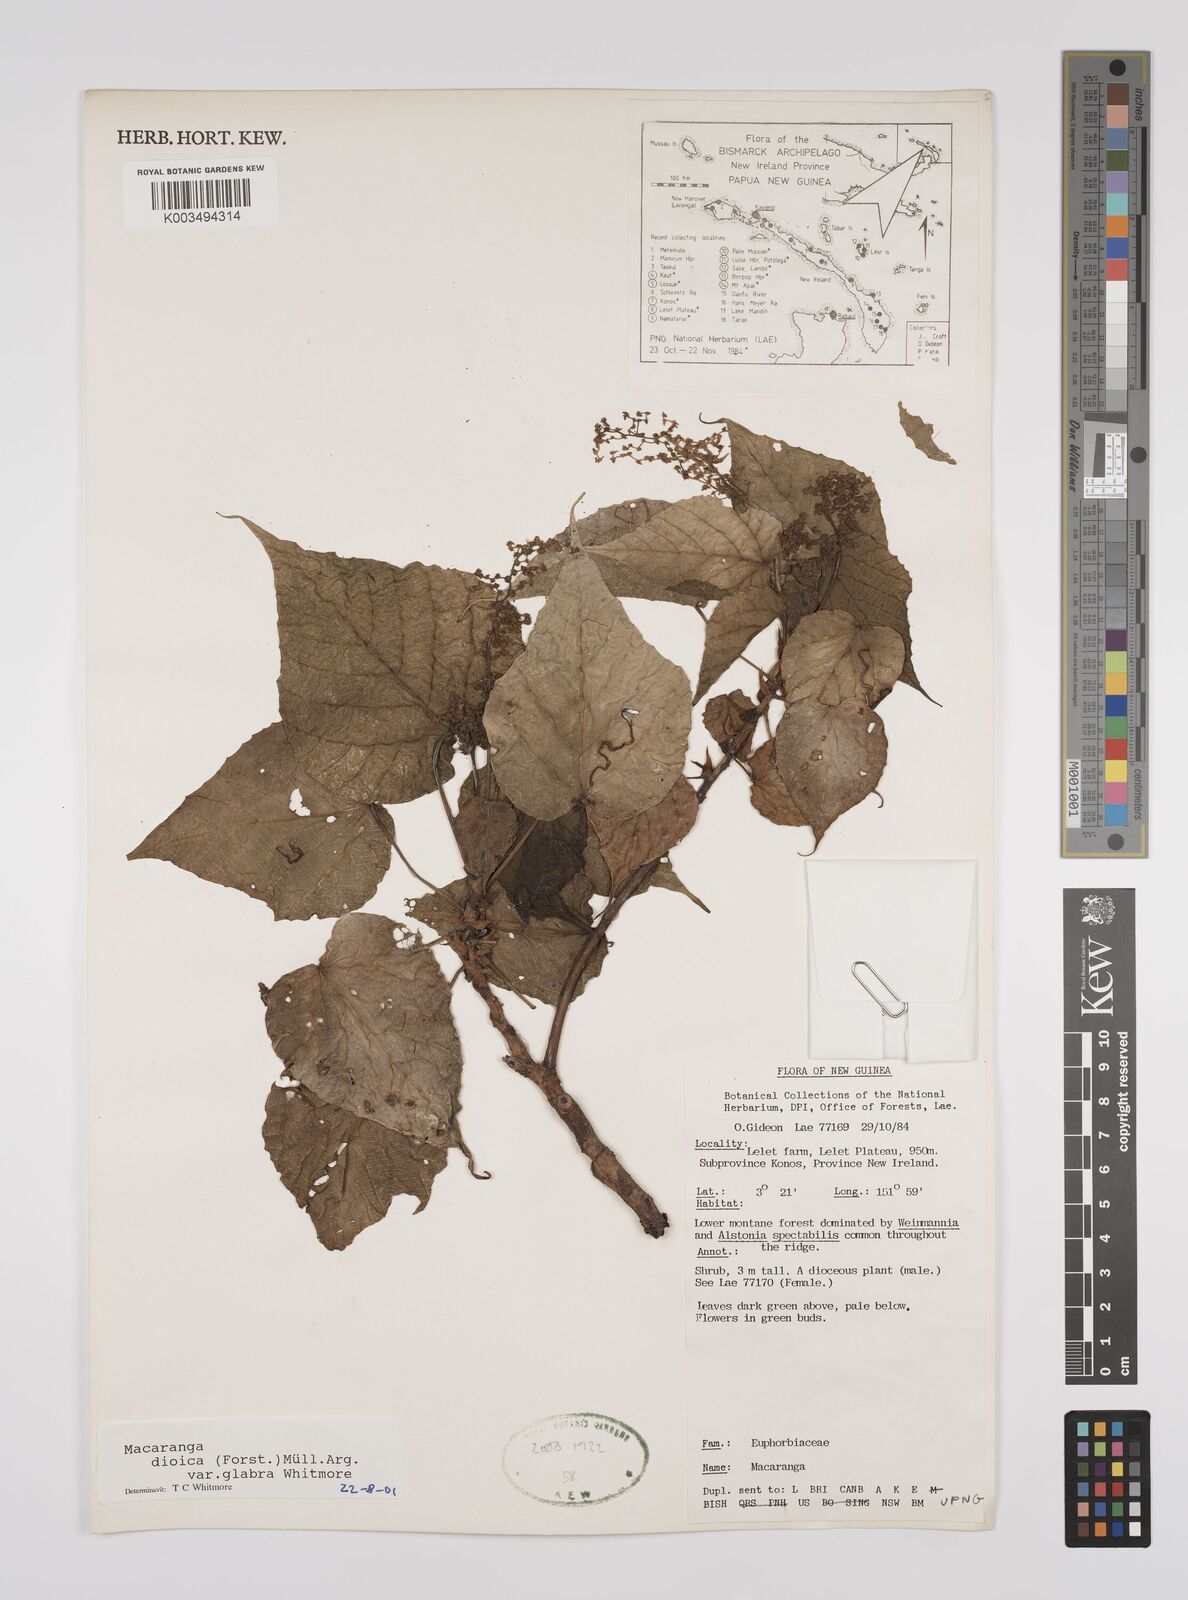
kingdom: Plantae
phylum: Tracheophyta
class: Magnoliopsida
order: Malpighiales
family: Euphorbiaceae
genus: Macaranga
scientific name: Macaranga dioica
